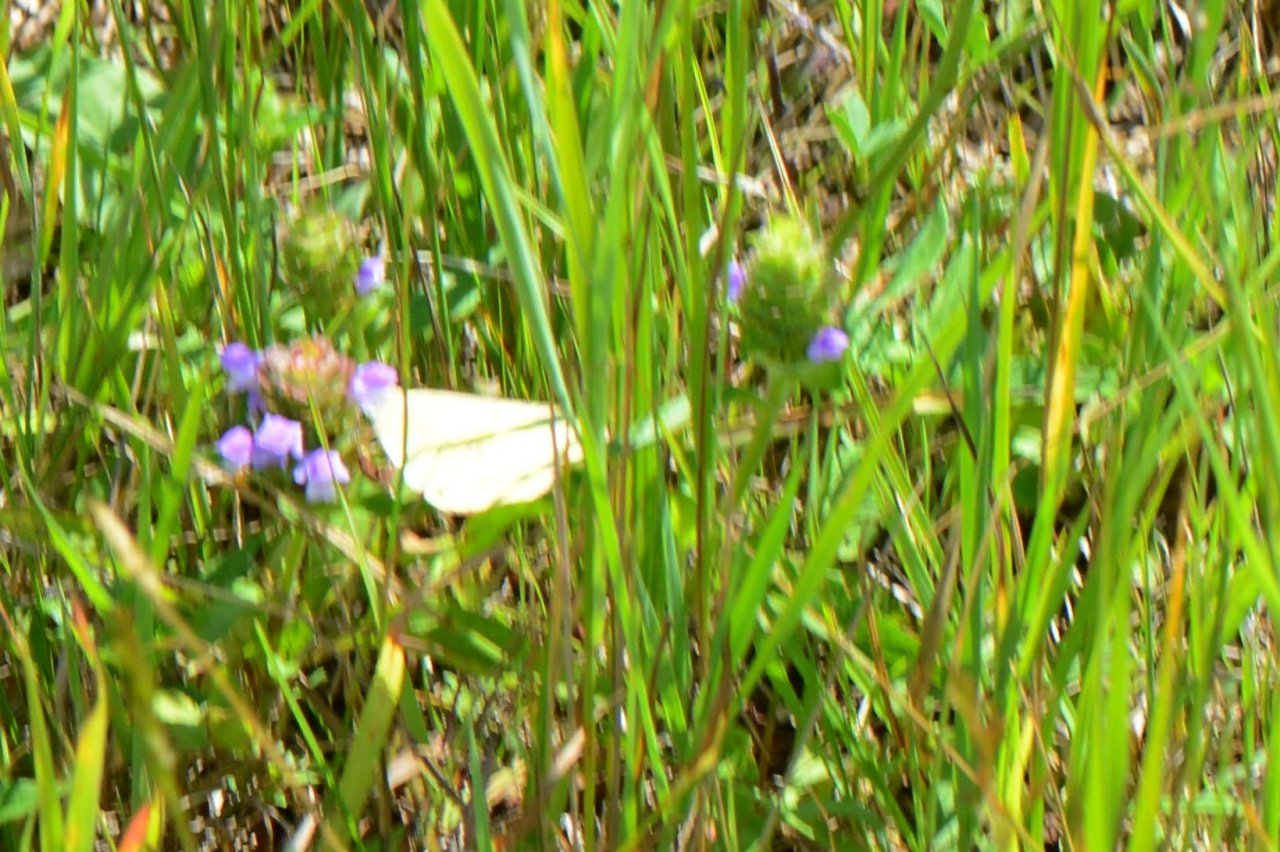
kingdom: Animalia
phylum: Arthropoda
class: Insecta
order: Lepidoptera
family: Pieridae
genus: Colias
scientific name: Colias philodice
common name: Clouded Sulphur
